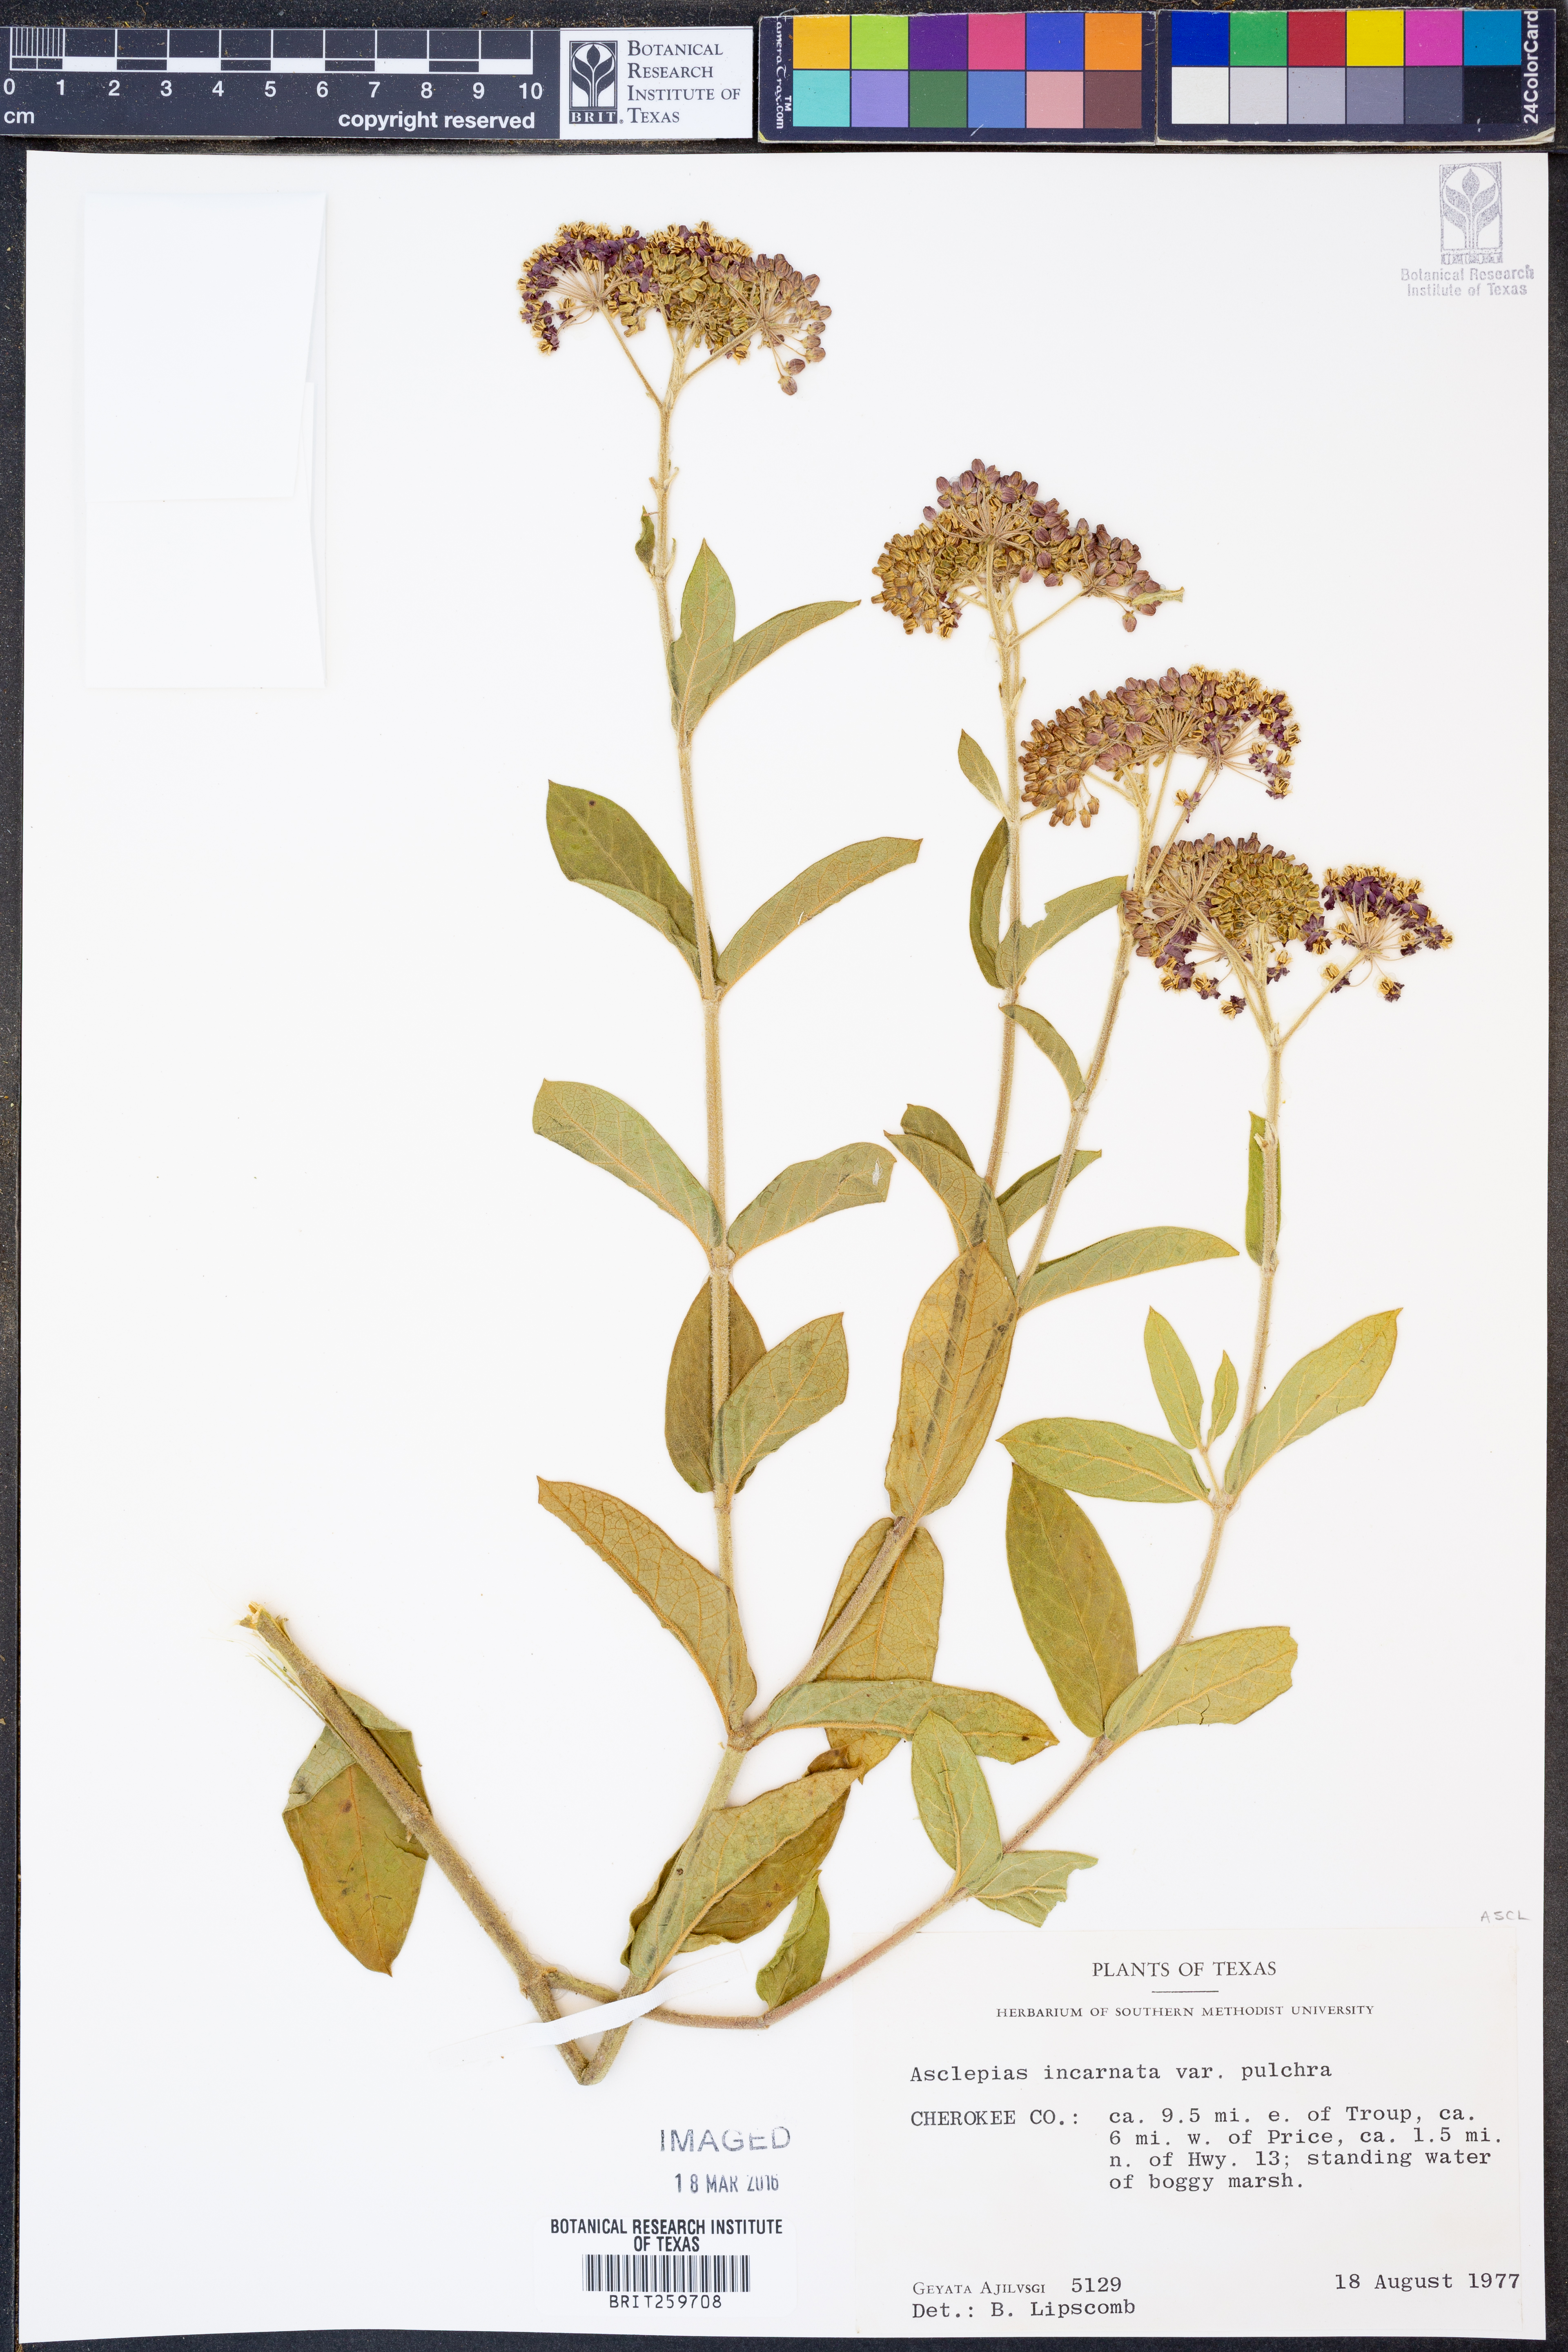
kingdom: Plantae
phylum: Tracheophyta
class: Magnoliopsida
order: Gentianales
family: Apocynaceae
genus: Asclepias
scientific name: Asclepias incarnata
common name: Swamp milkweed
